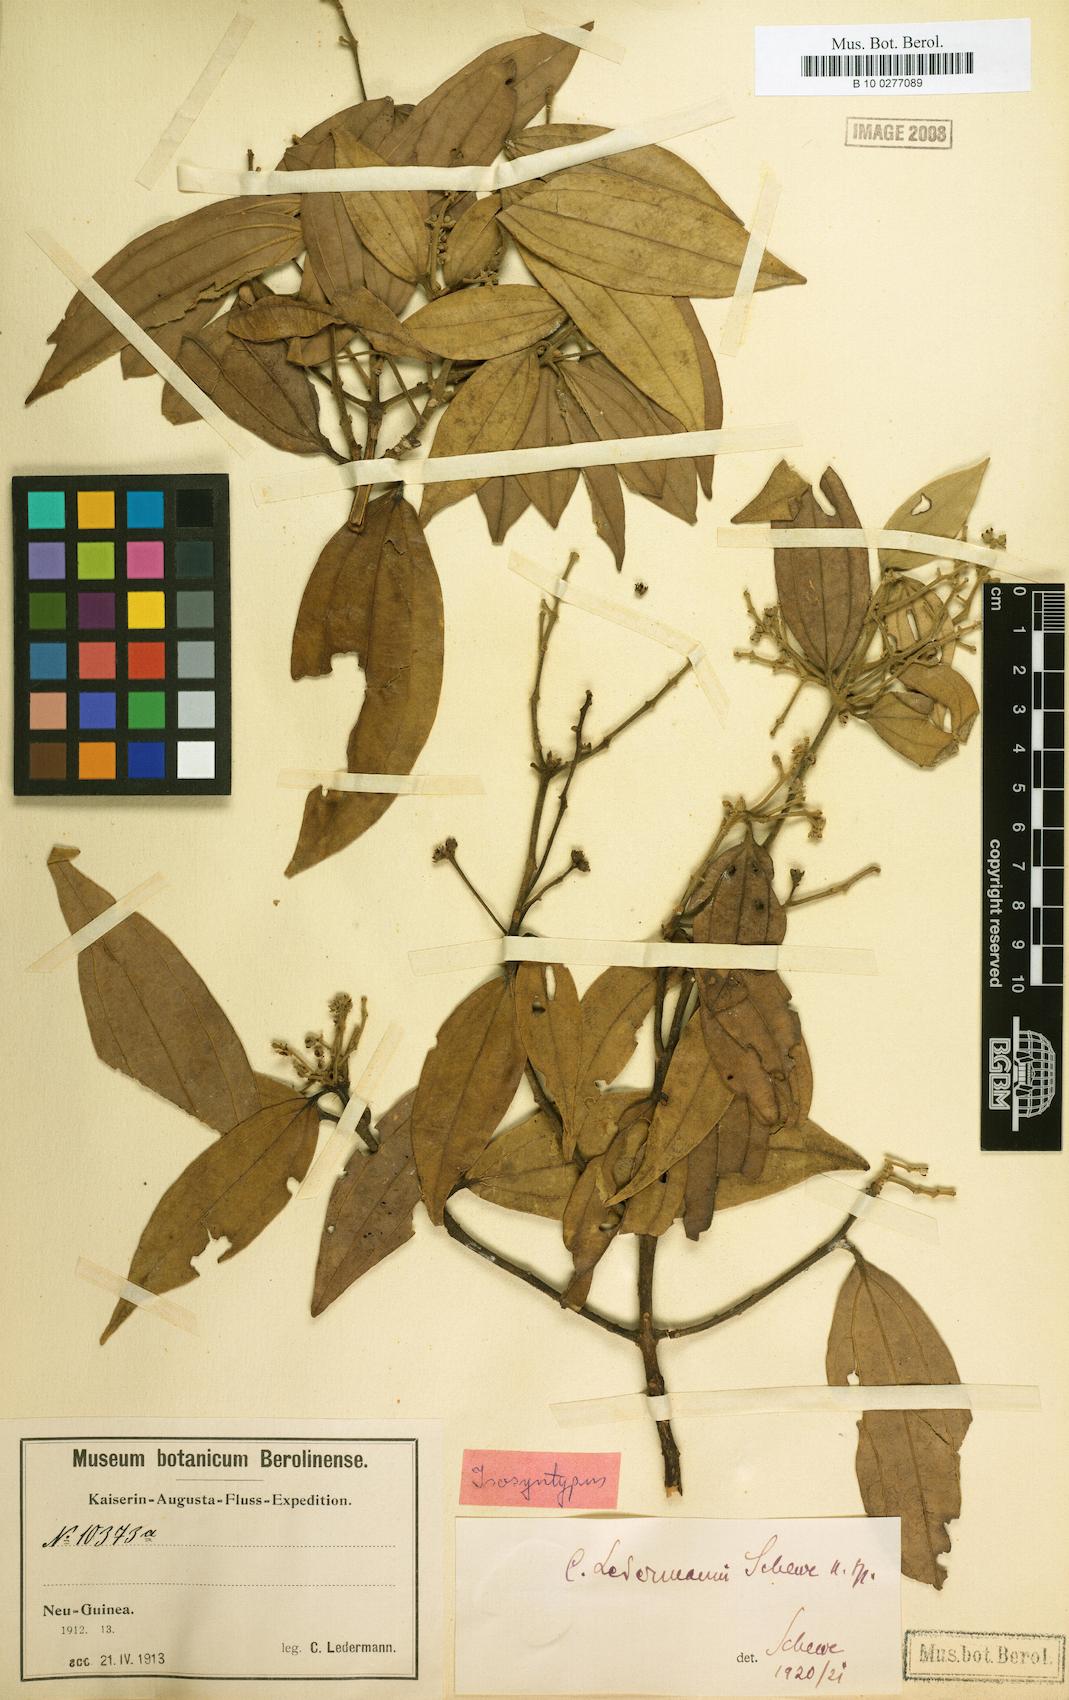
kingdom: Plantae
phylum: Tracheophyta
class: Magnoliopsida
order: Laurales
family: Lauraceae
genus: Cinnamomum
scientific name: Cinnamomum ledermannii
